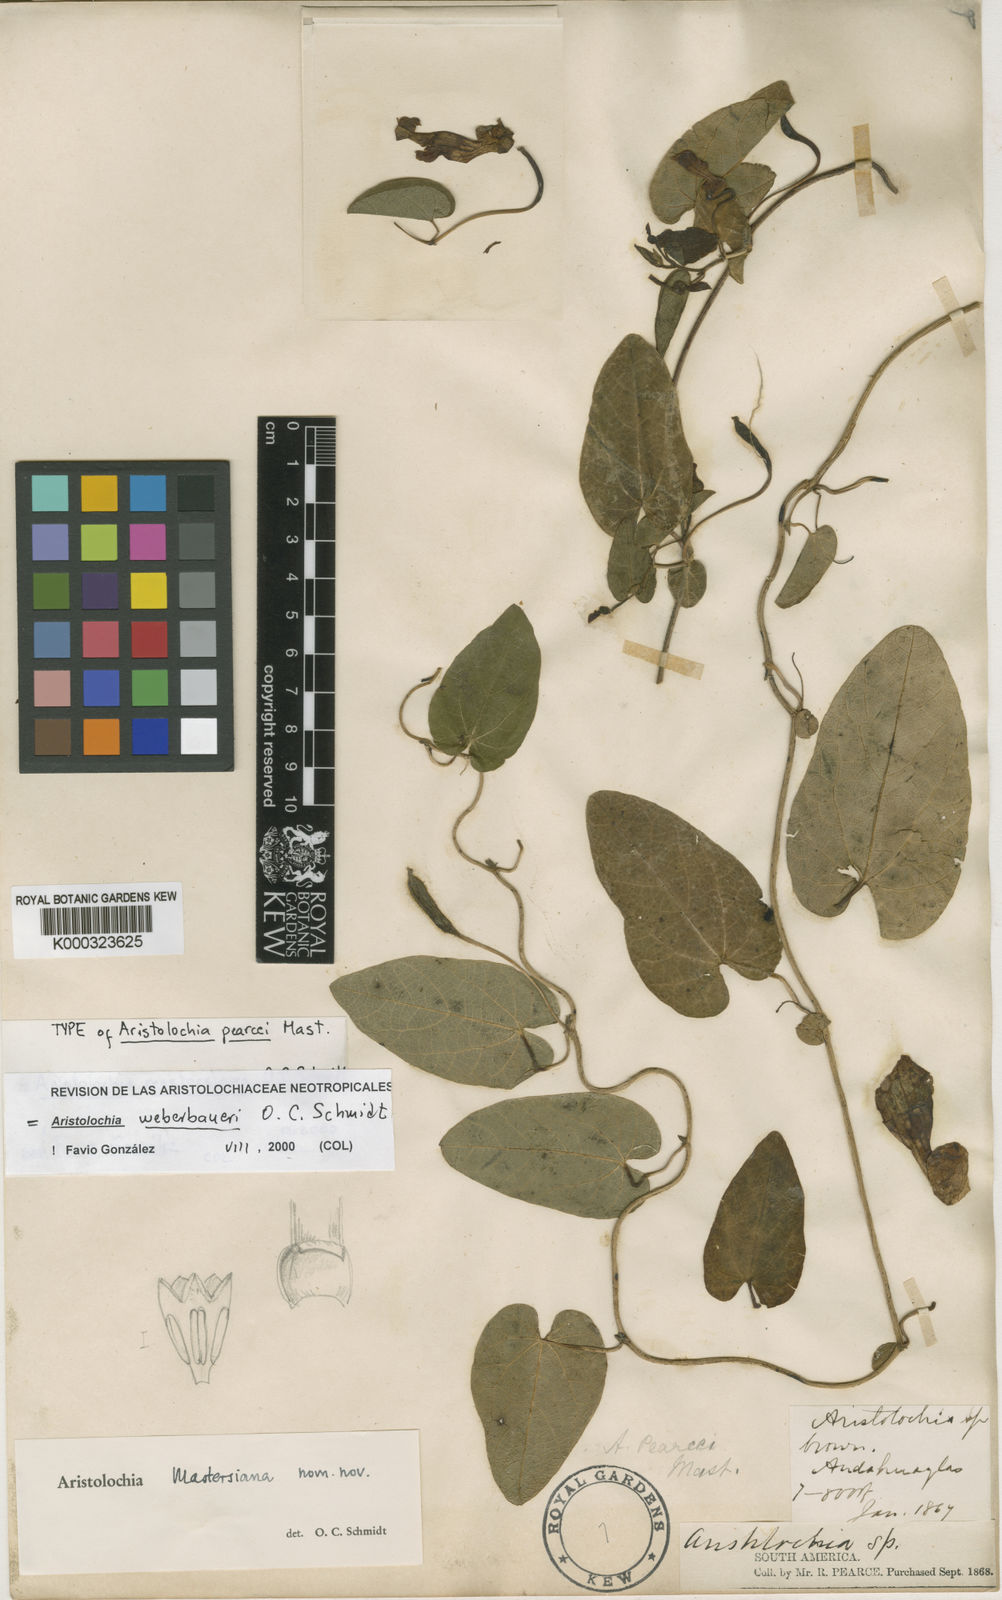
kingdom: Plantae
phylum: Tracheophyta
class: Magnoliopsida
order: Piperales
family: Aristolochiaceae
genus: Aristolochia
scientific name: Aristolochia weberbaueri
